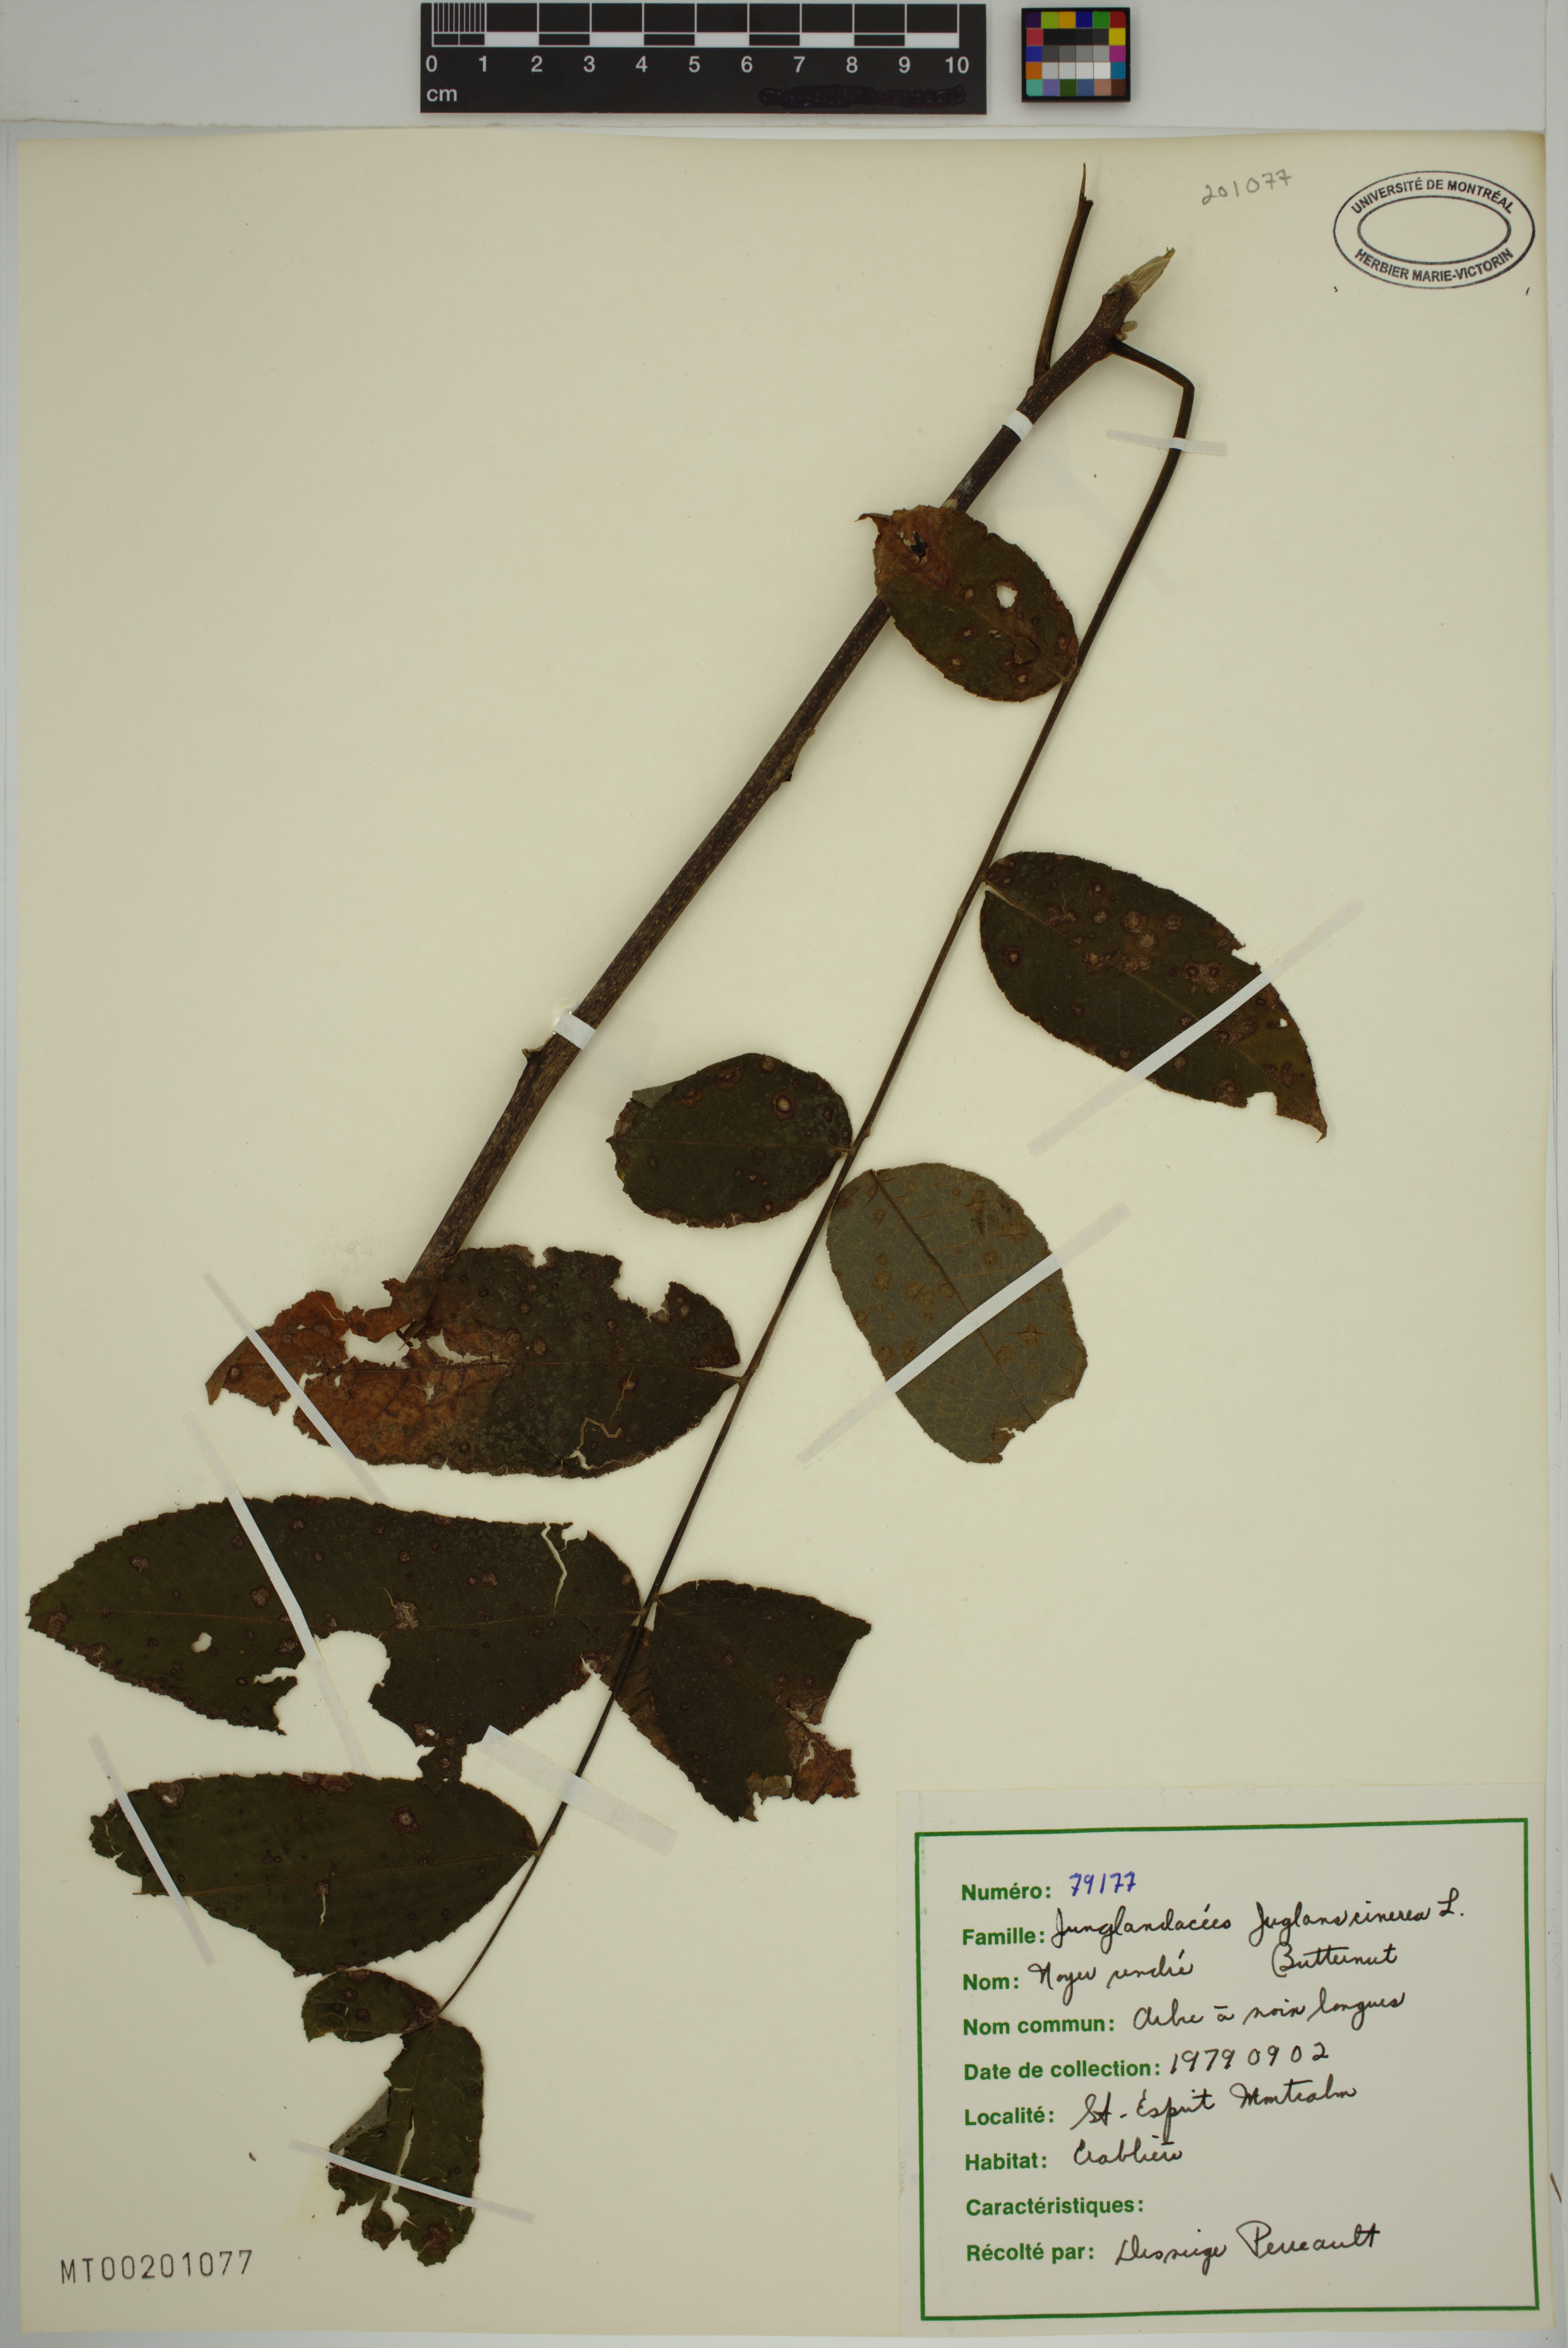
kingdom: Plantae
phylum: Tracheophyta
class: Magnoliopsida
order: Fagales
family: Juglandaceae
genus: Juglans
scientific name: Juglans cinerea
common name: Butternut
